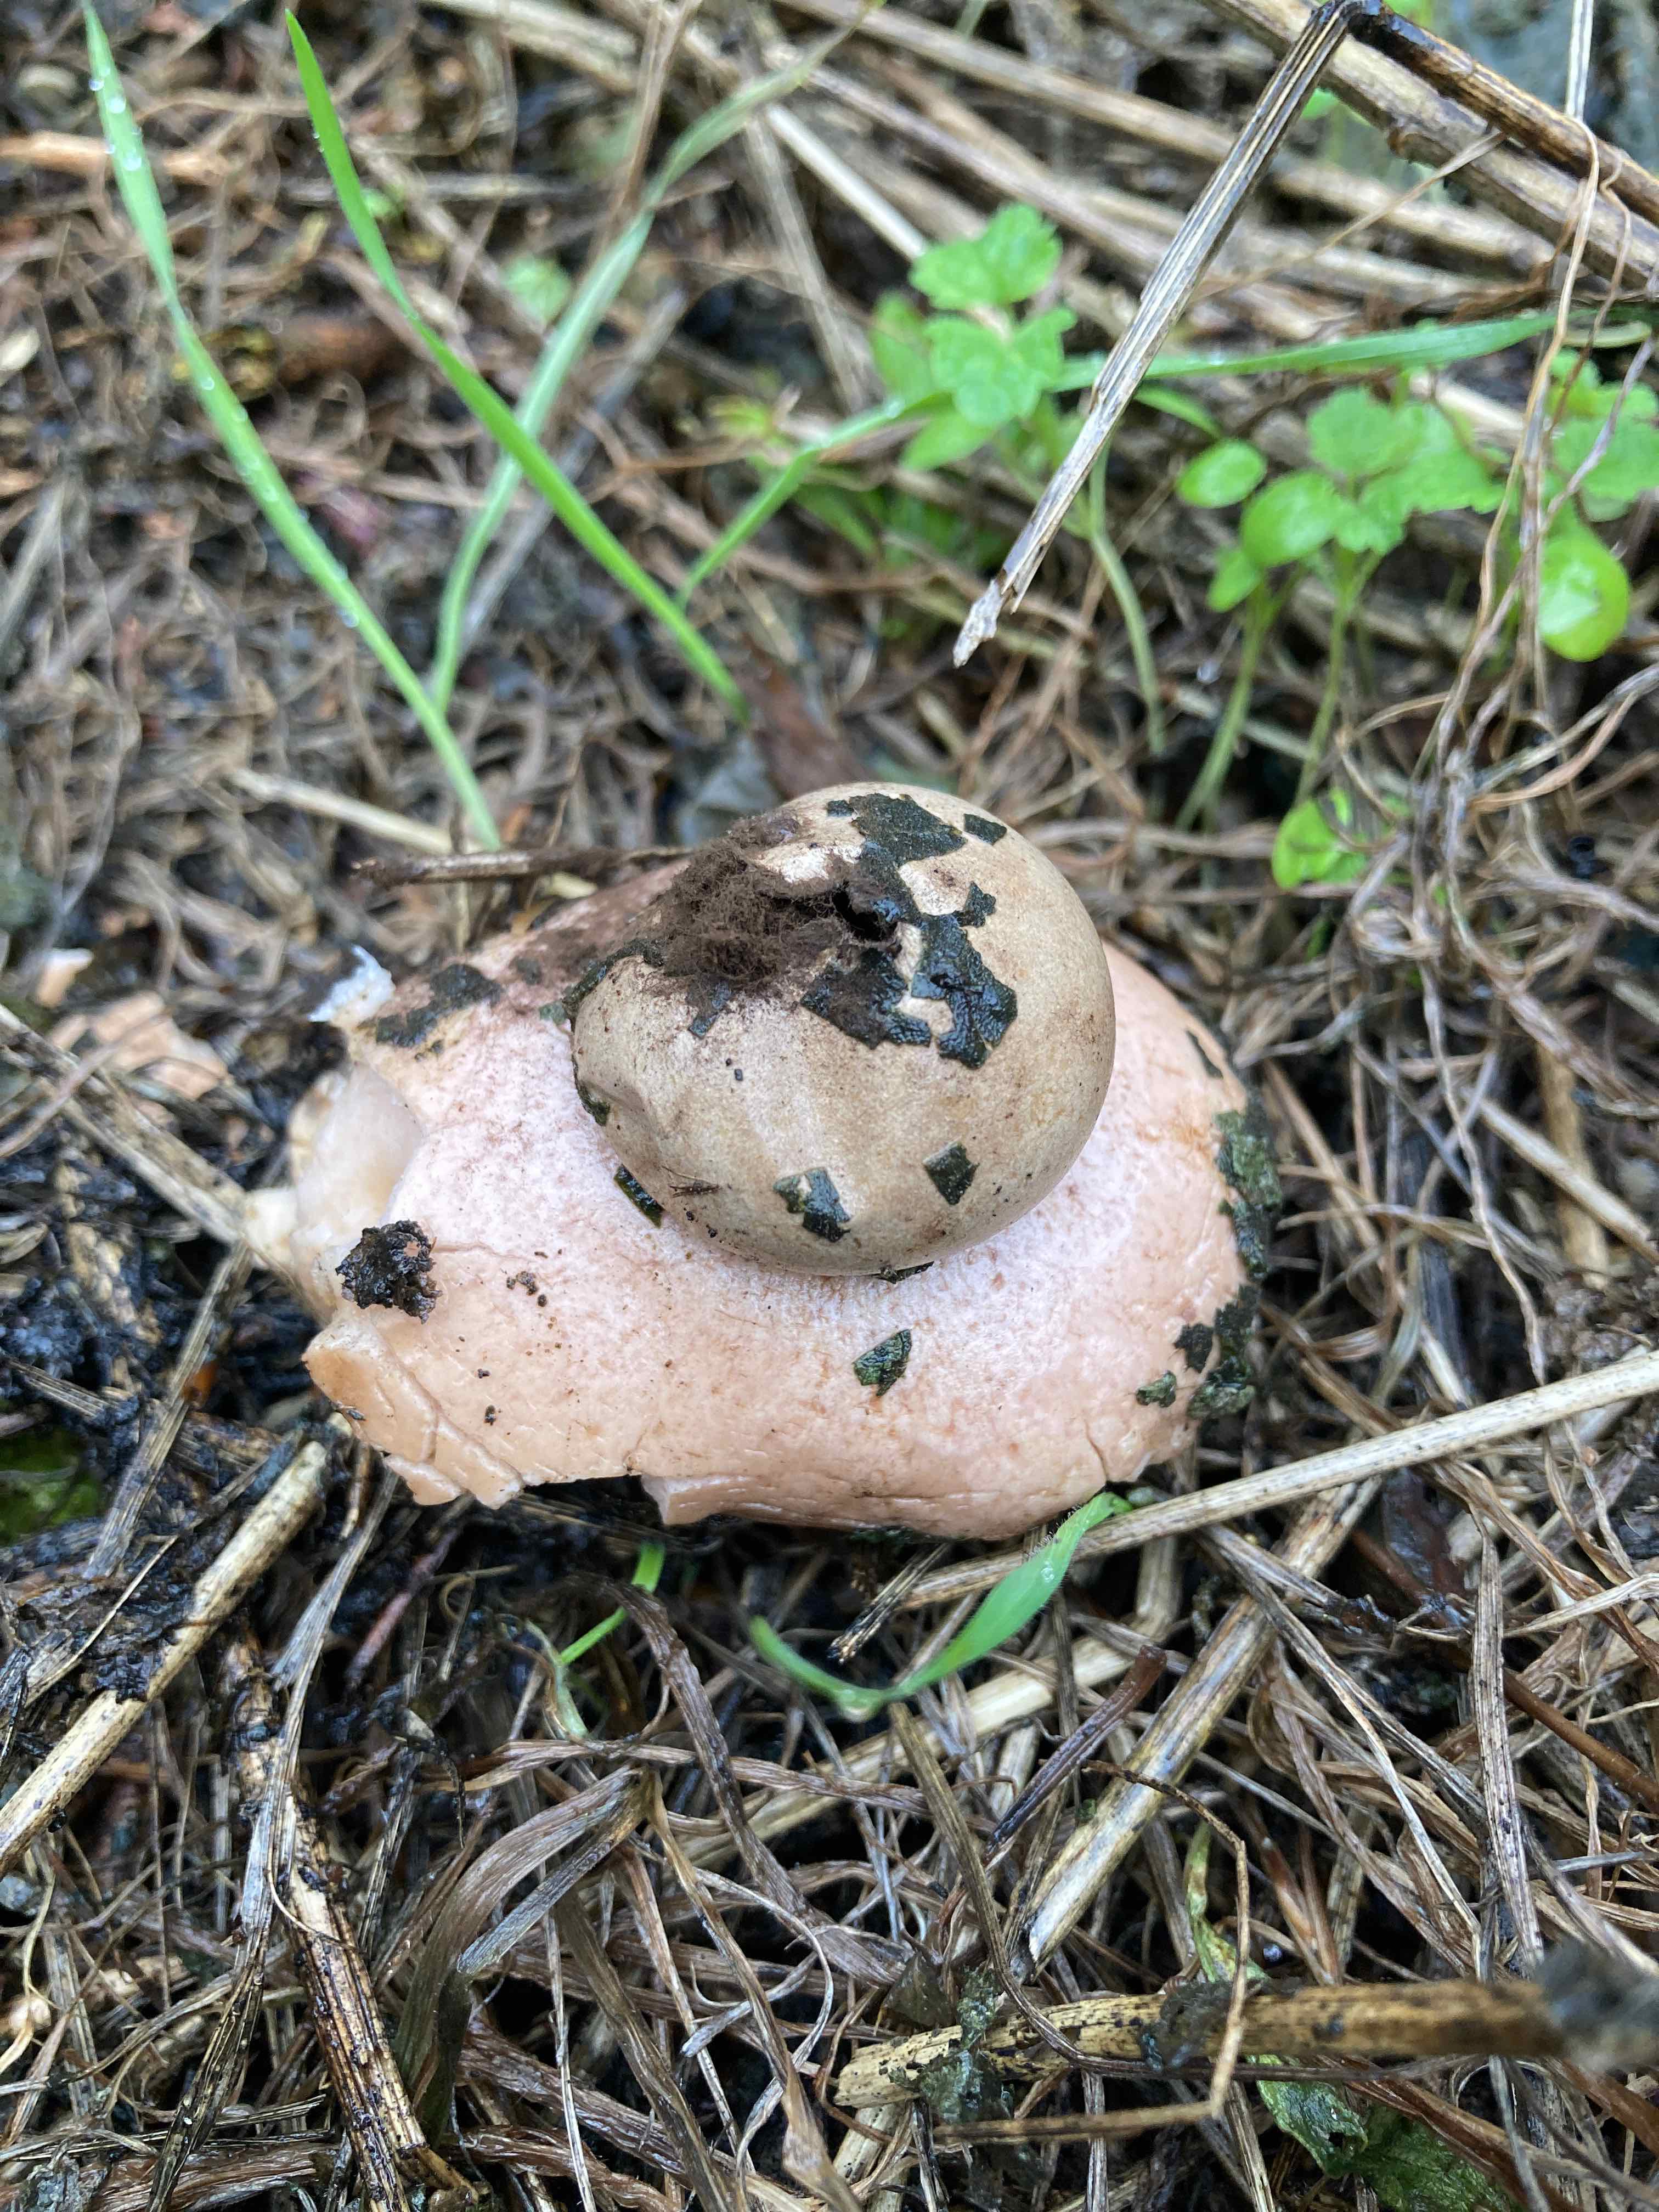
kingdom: Fungi
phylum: Basidiomycota
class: Agaricomycetes
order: Geastrales
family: Geastraceae
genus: Geastrum
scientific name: Geastrum
